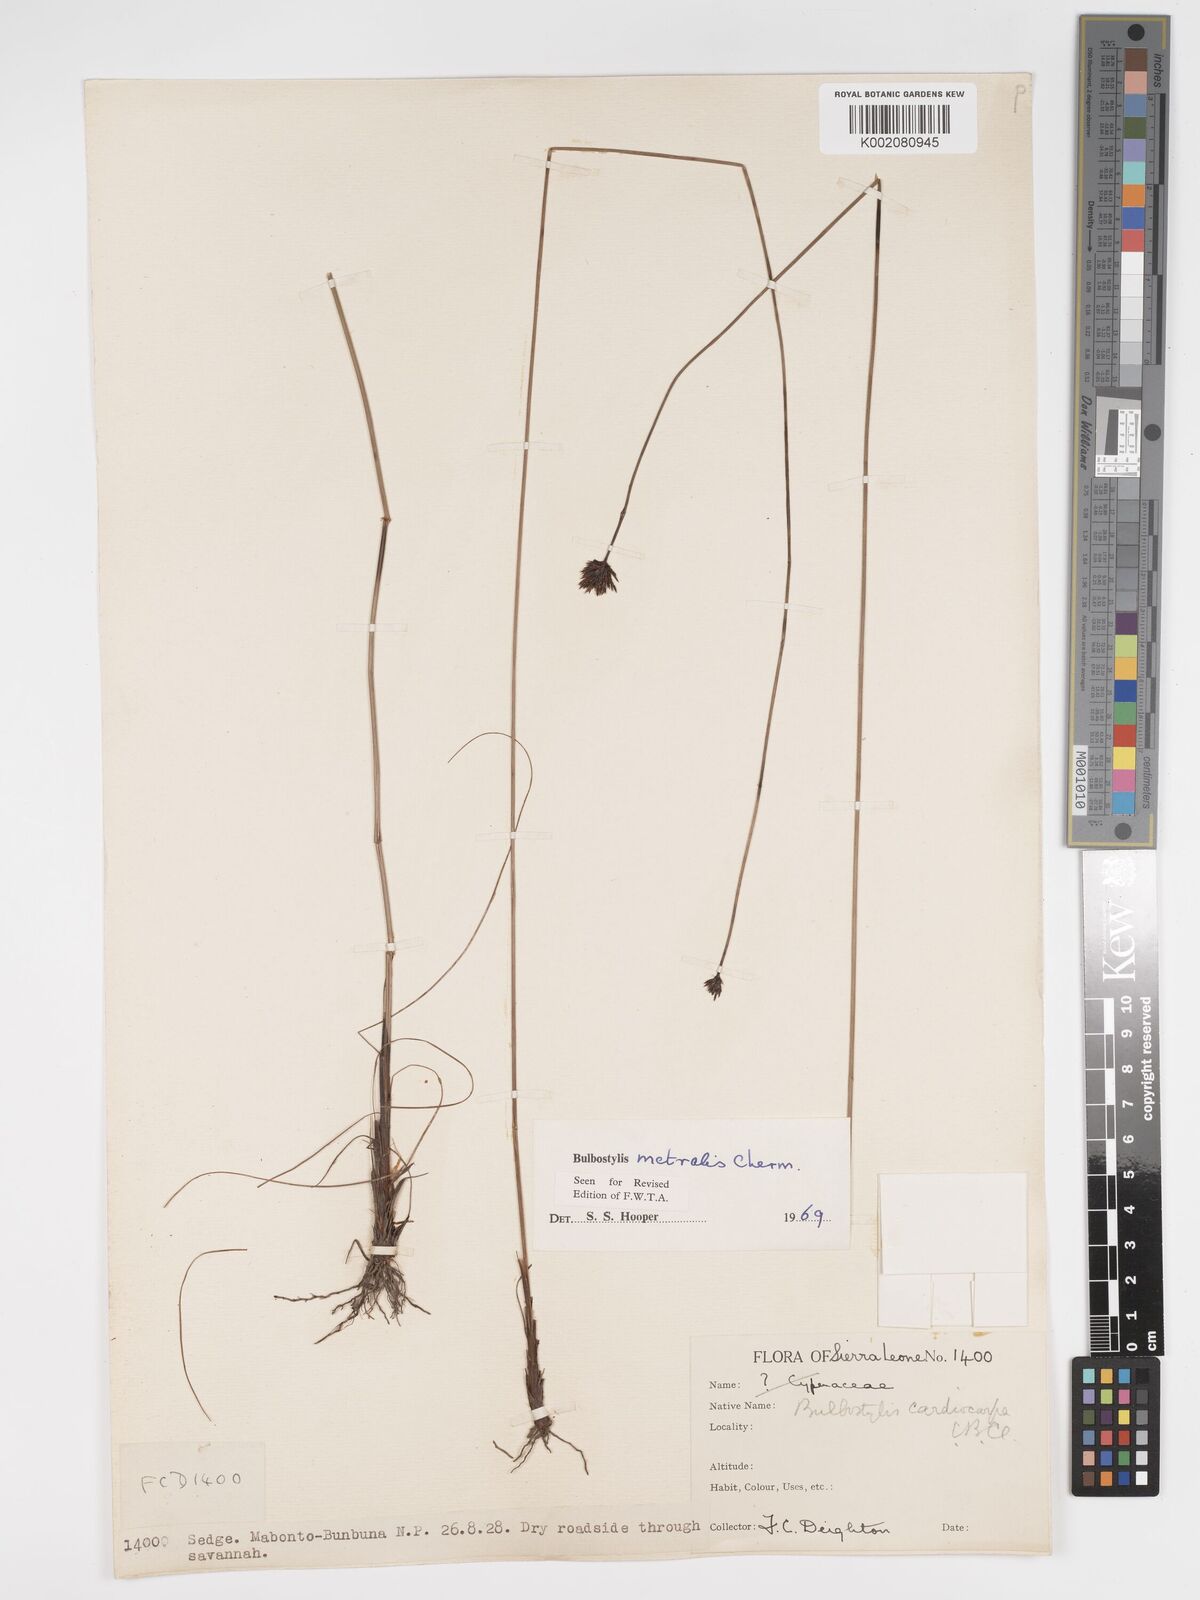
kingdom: Plantae
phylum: Tracheophyta
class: Liliopsida
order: Poales
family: Cyperaceae
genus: Bulbostylis
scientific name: Bulbostylis filamentosa
